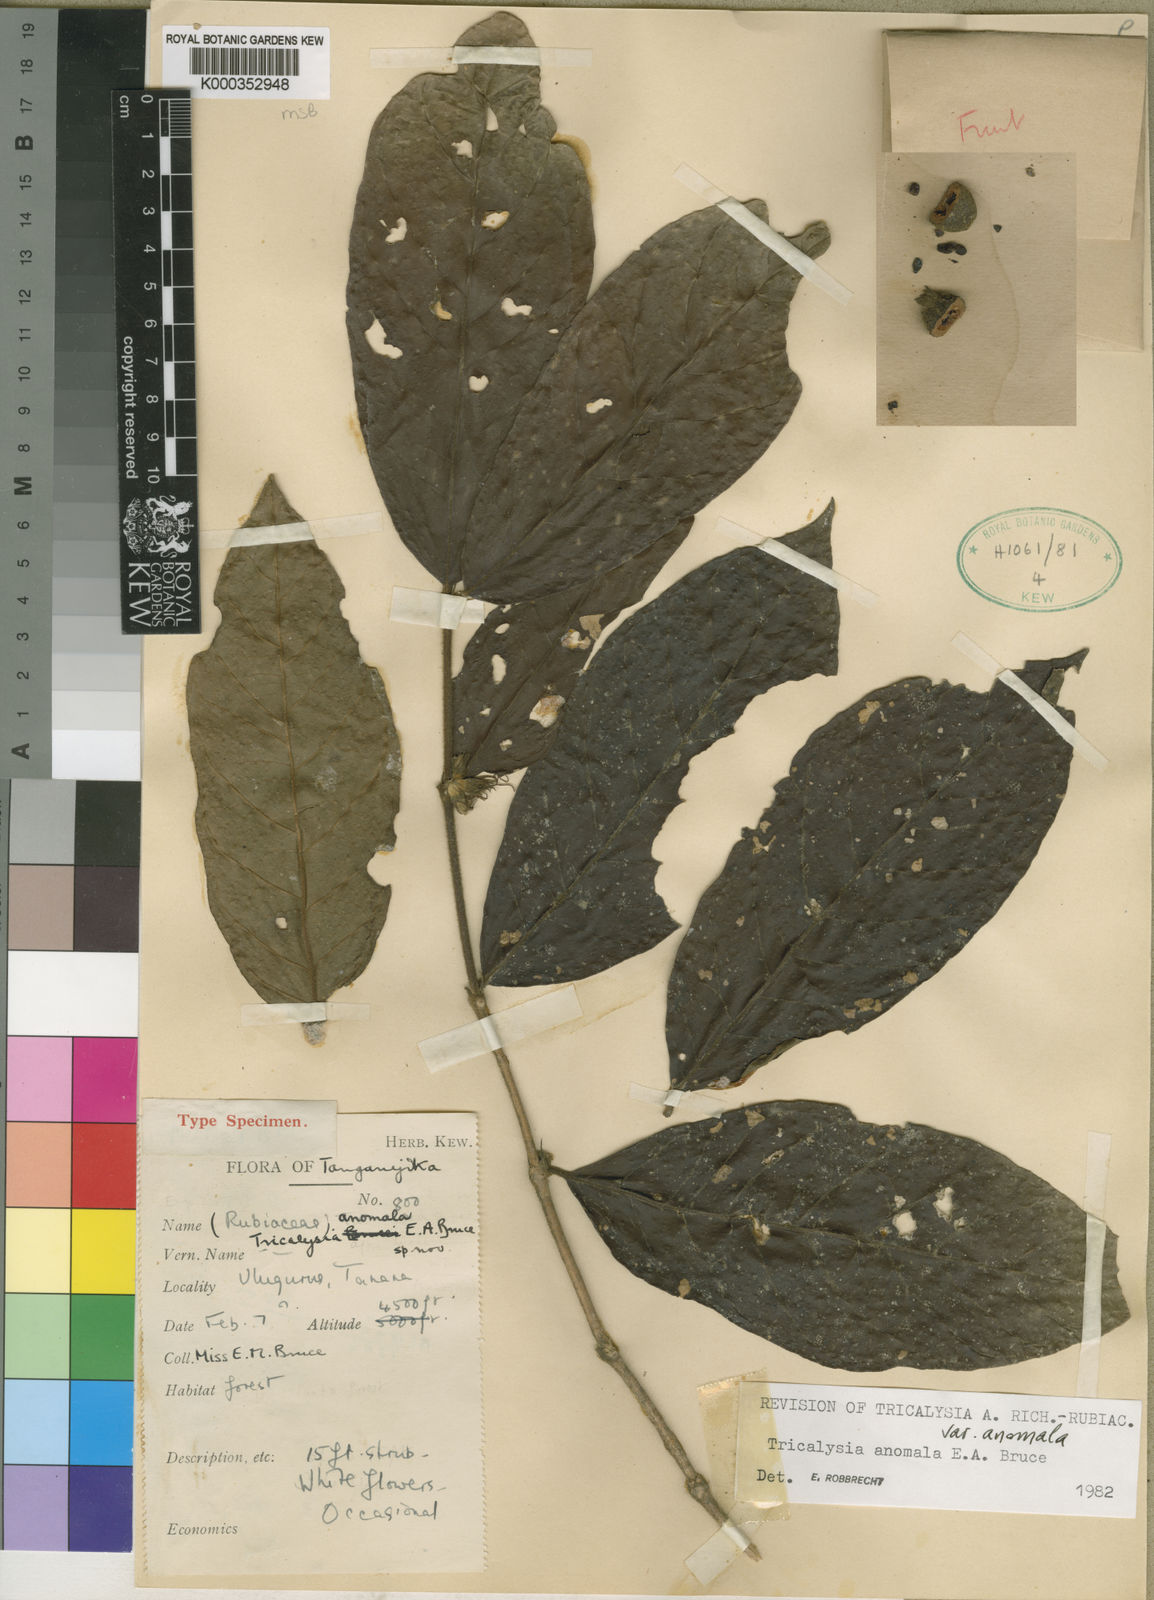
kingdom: Plantae
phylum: Tracheophyta
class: Magnoliopsida
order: Gentianales
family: Rubiaceae
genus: Tricalysia
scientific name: Tricalysia anomala
